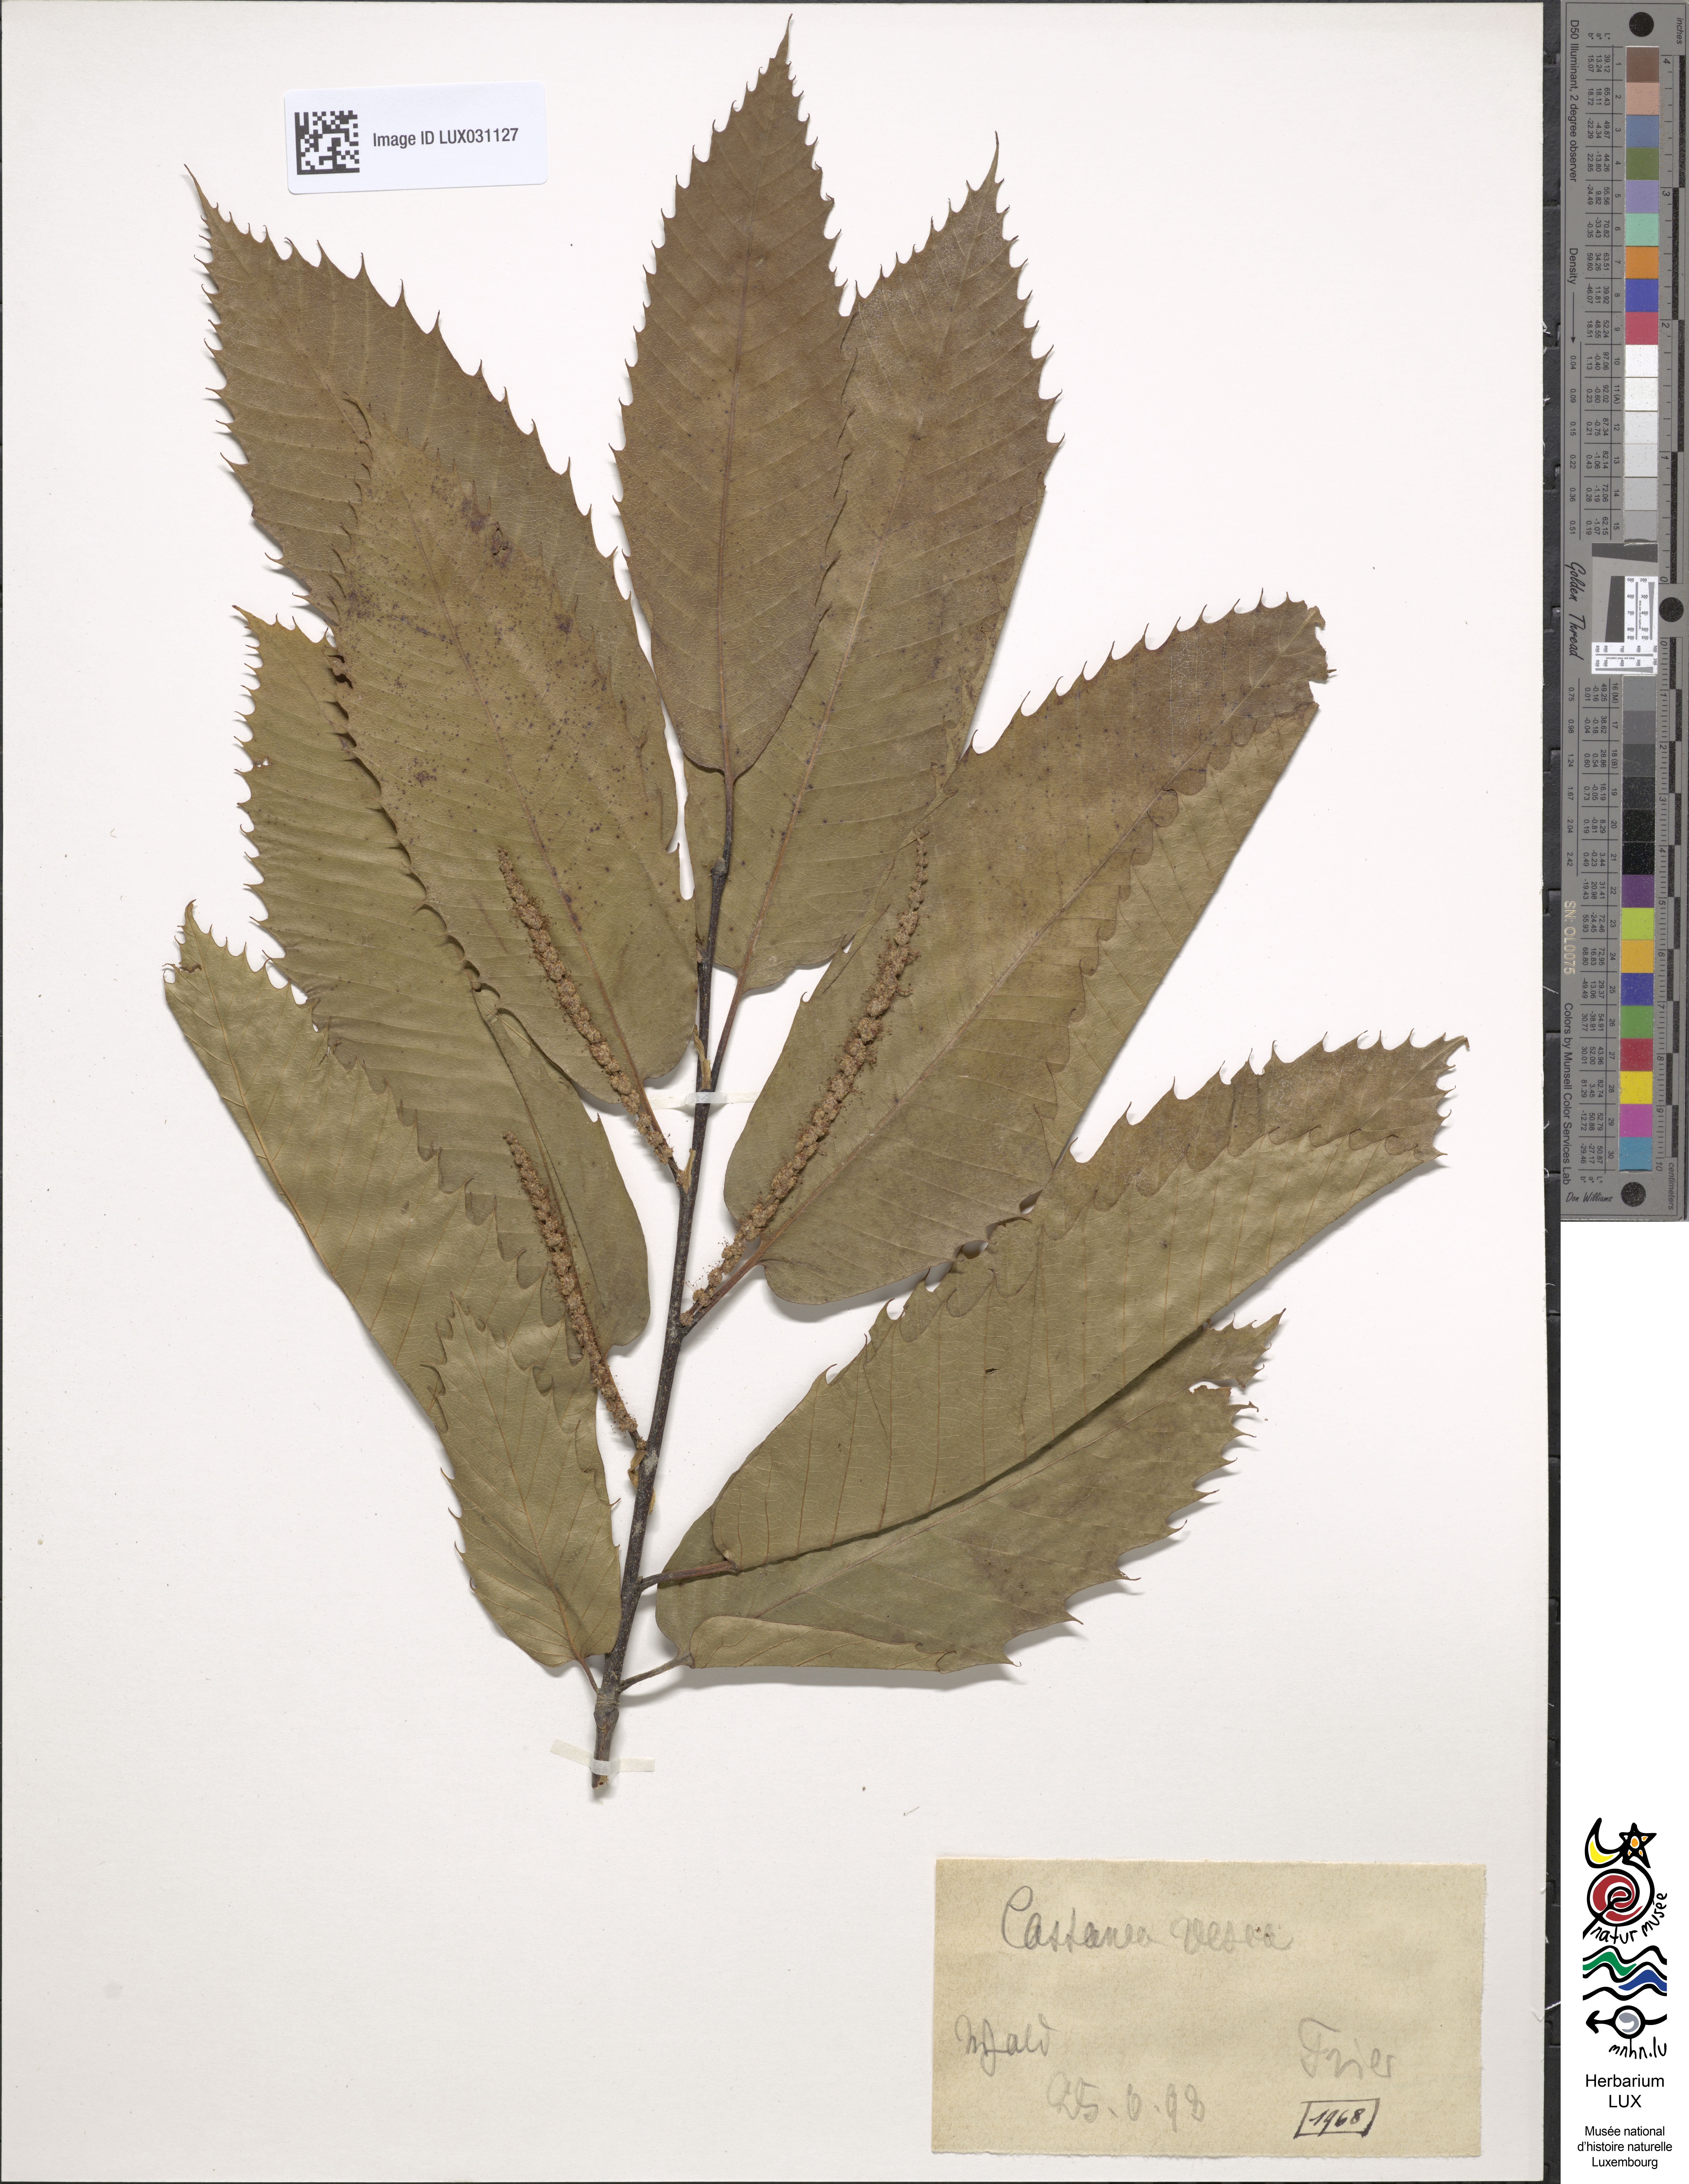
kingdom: Plantae
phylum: Tracheophyta
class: Magnoliopsida
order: Fagales
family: Fagaceae
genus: Castanea
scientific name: Castanea sativa
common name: Sweet chestnut
